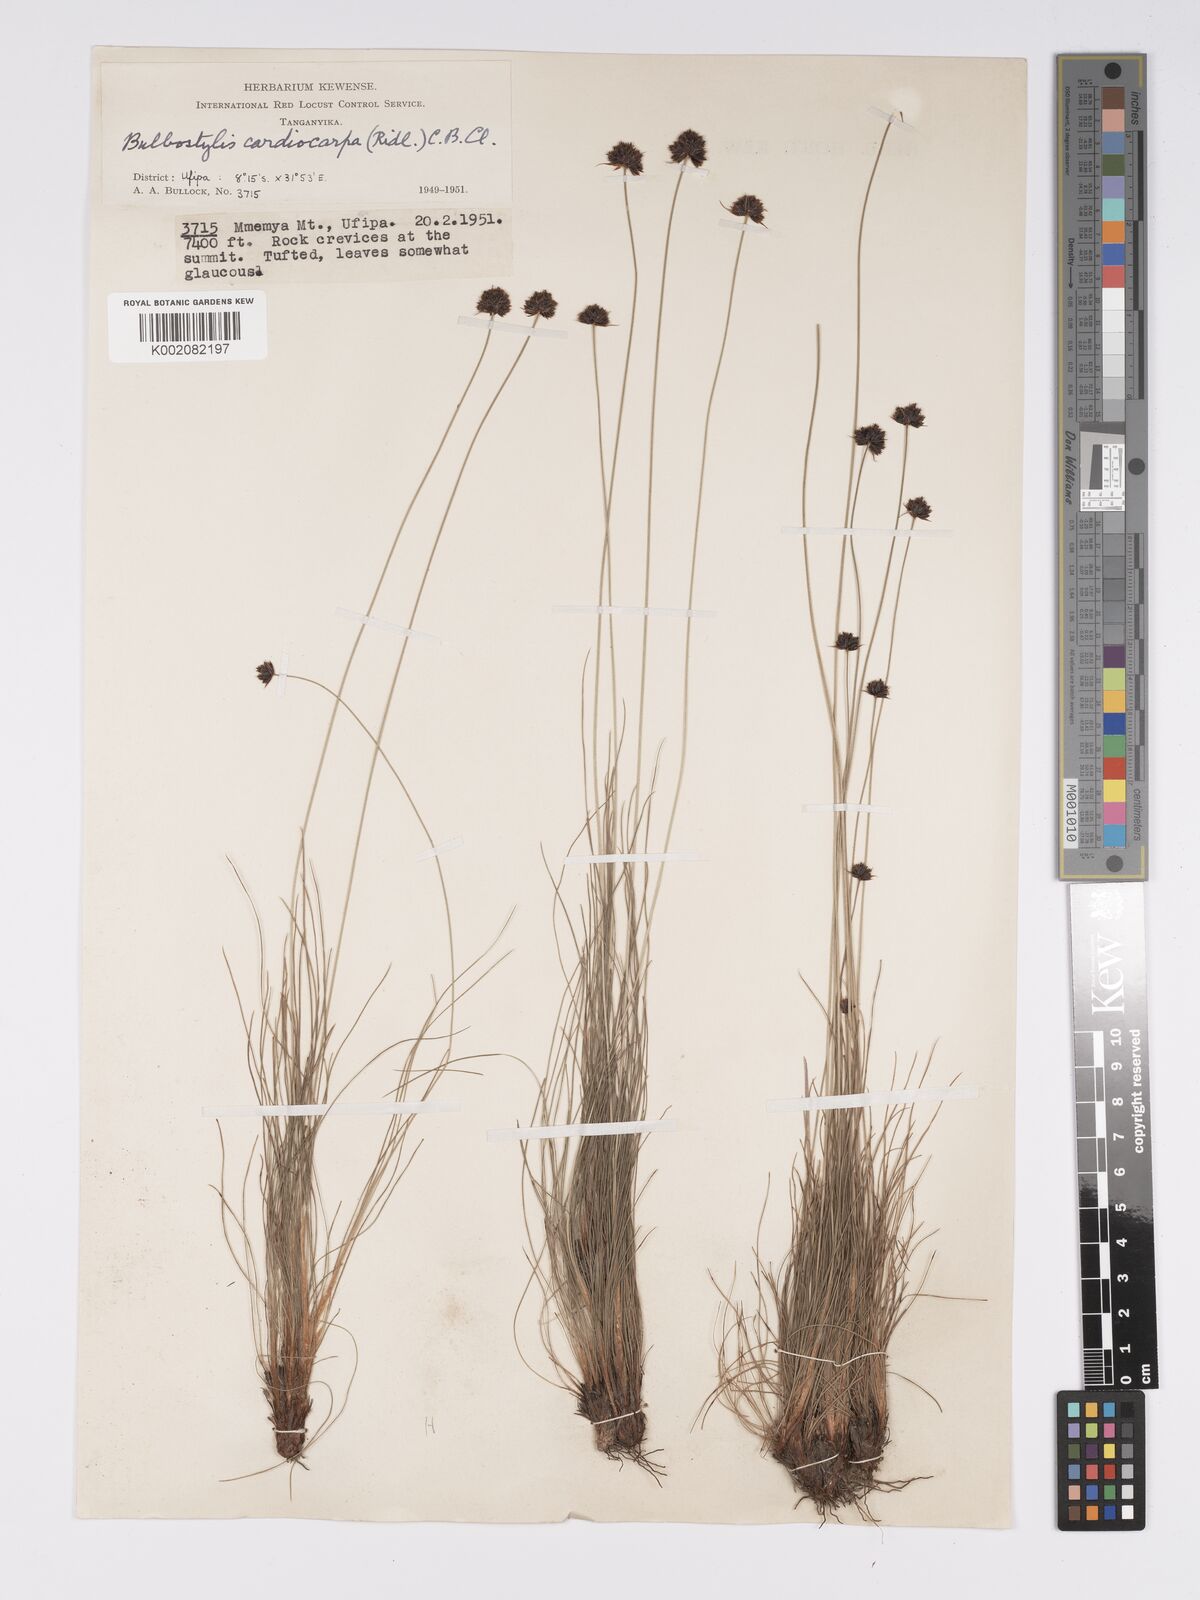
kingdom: Plantae
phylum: Tracheophyta
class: Liliopsida
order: Poales
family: Cyperaceae
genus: Bulbostylis
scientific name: Bulbostylis filamentosa
